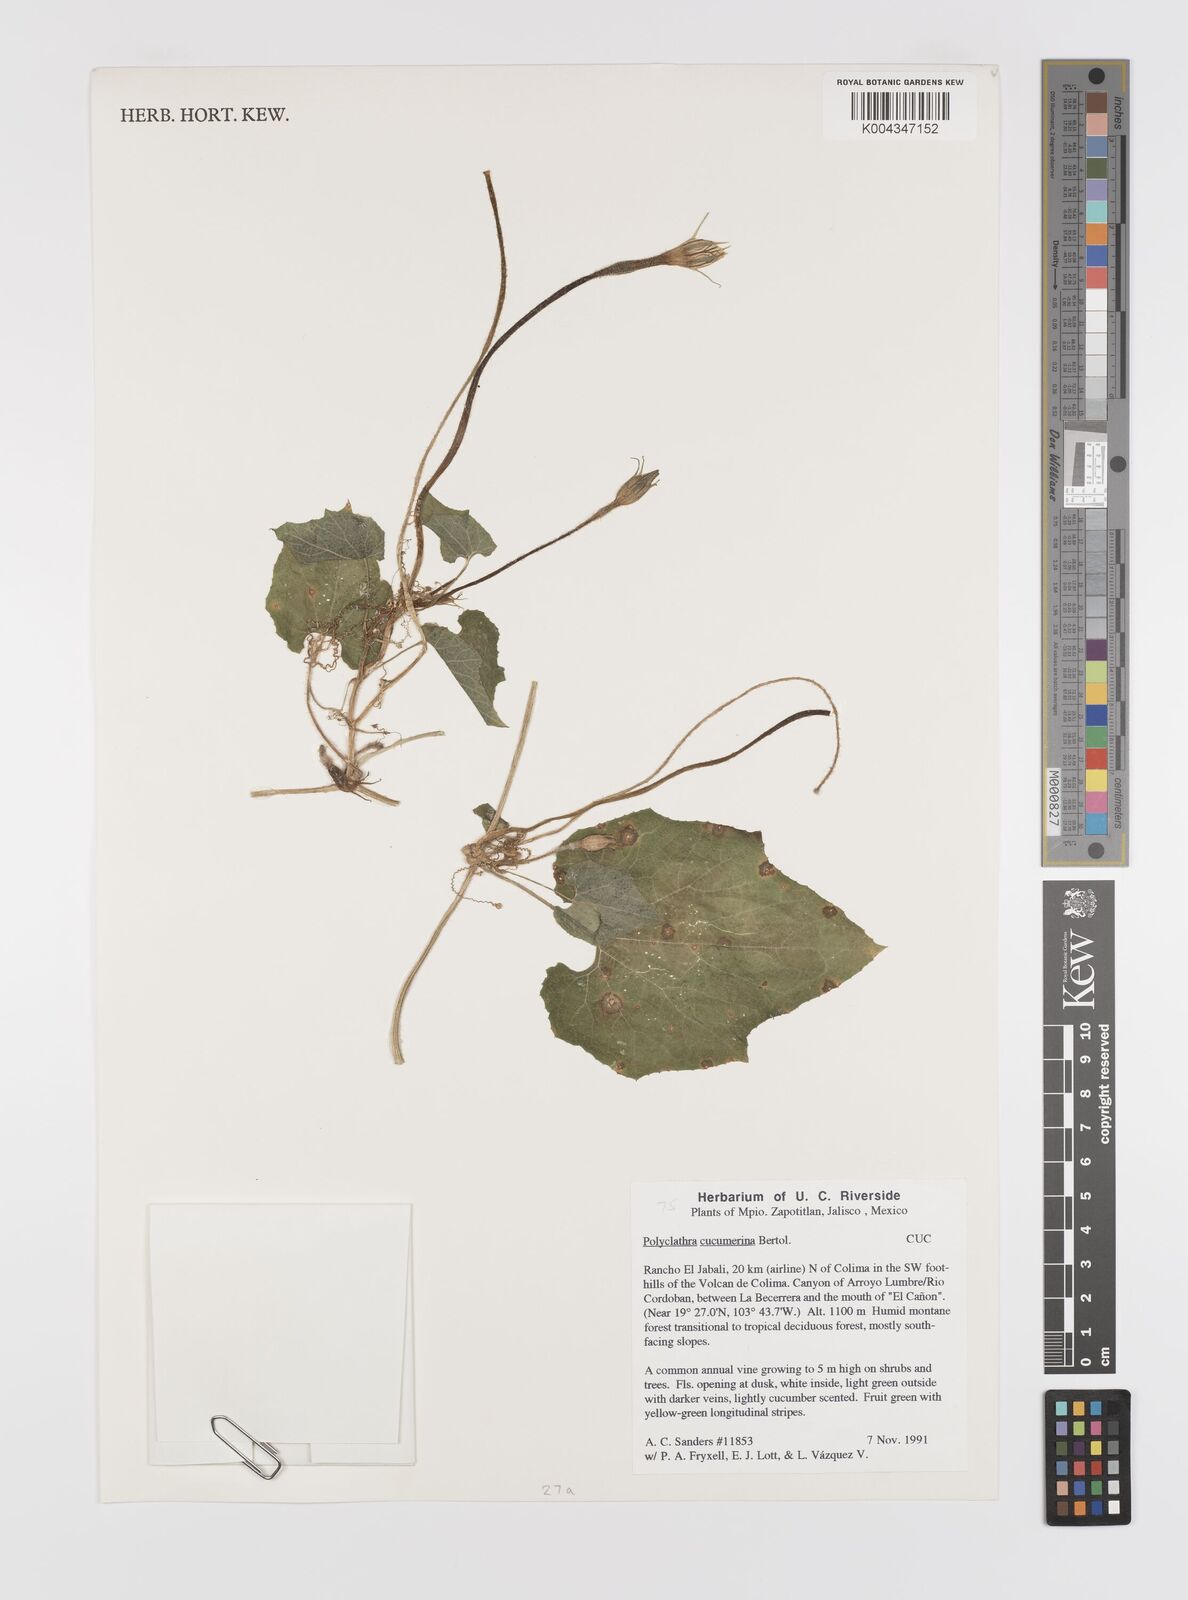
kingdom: Plantae
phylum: Tracheophyta
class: Magnoliopsida
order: Cucurbitales
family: Cucurbitaceae
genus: Polyclathra
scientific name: Polyclathra cucumerina
